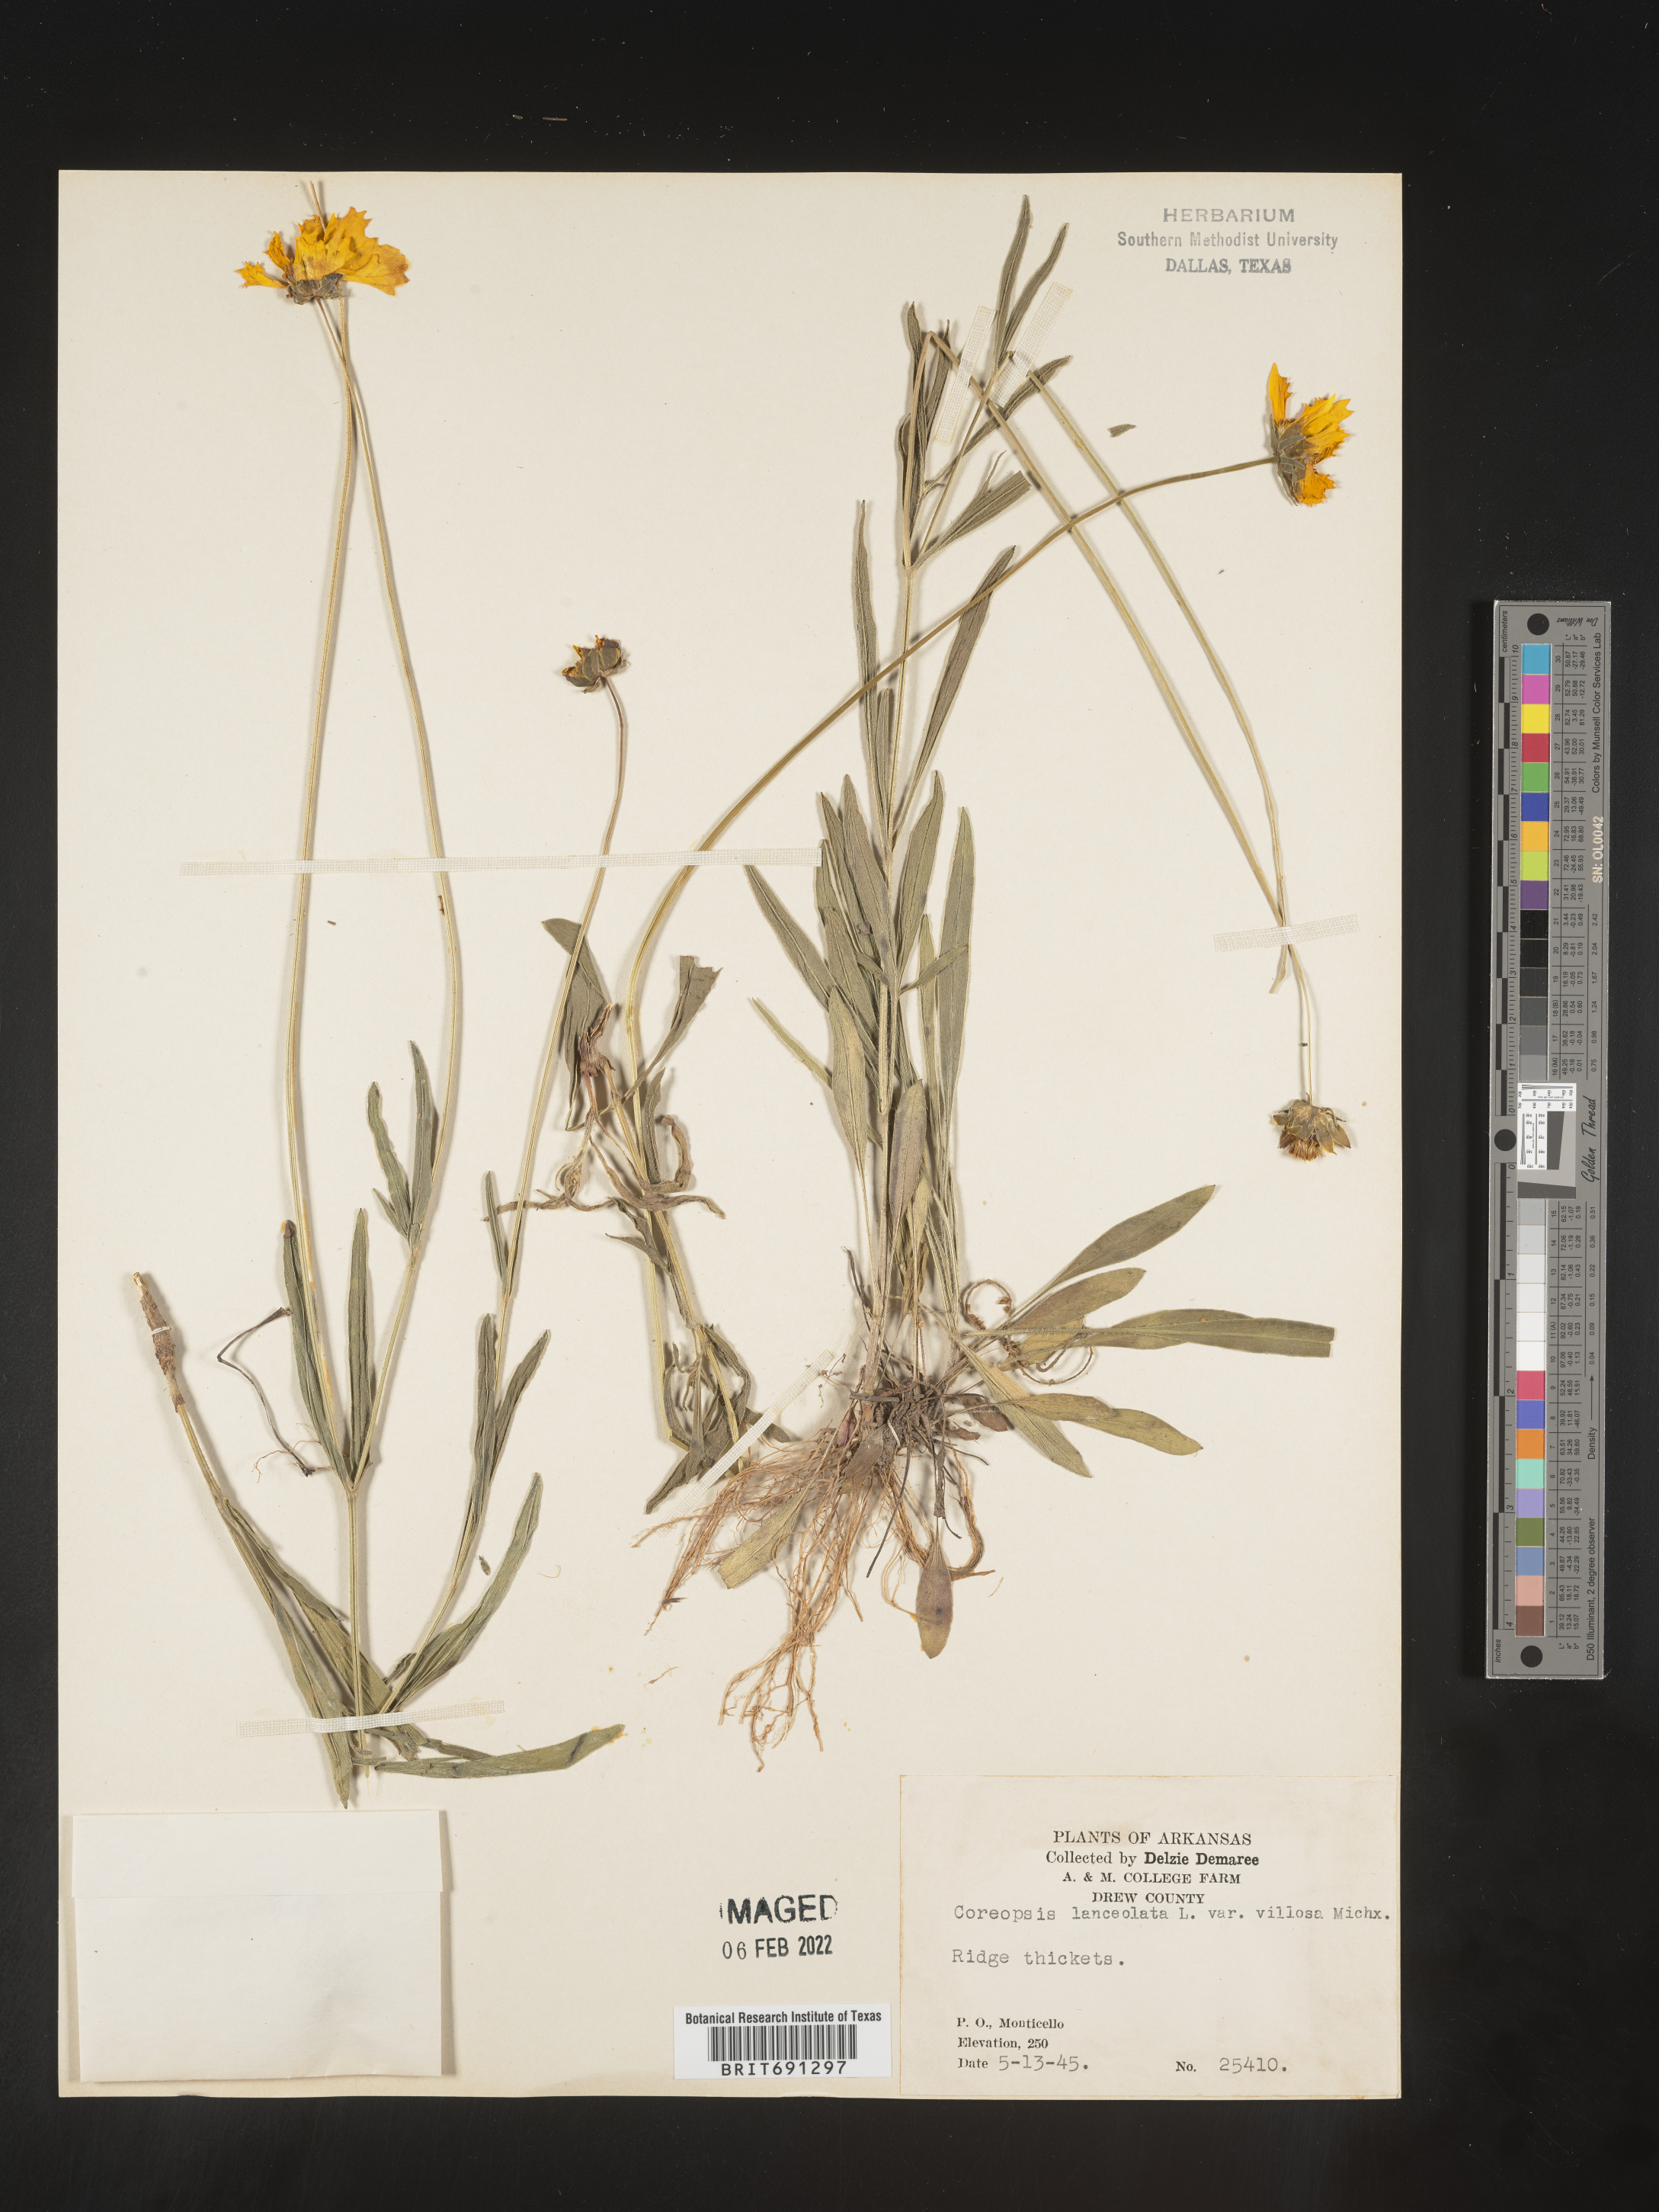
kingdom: Plantae
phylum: Tracheophyta
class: Magnoliopsida
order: Asterales
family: Asteraceae
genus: Coreopsis
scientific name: Coreopsis lanceolata
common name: Garden coreopsis
